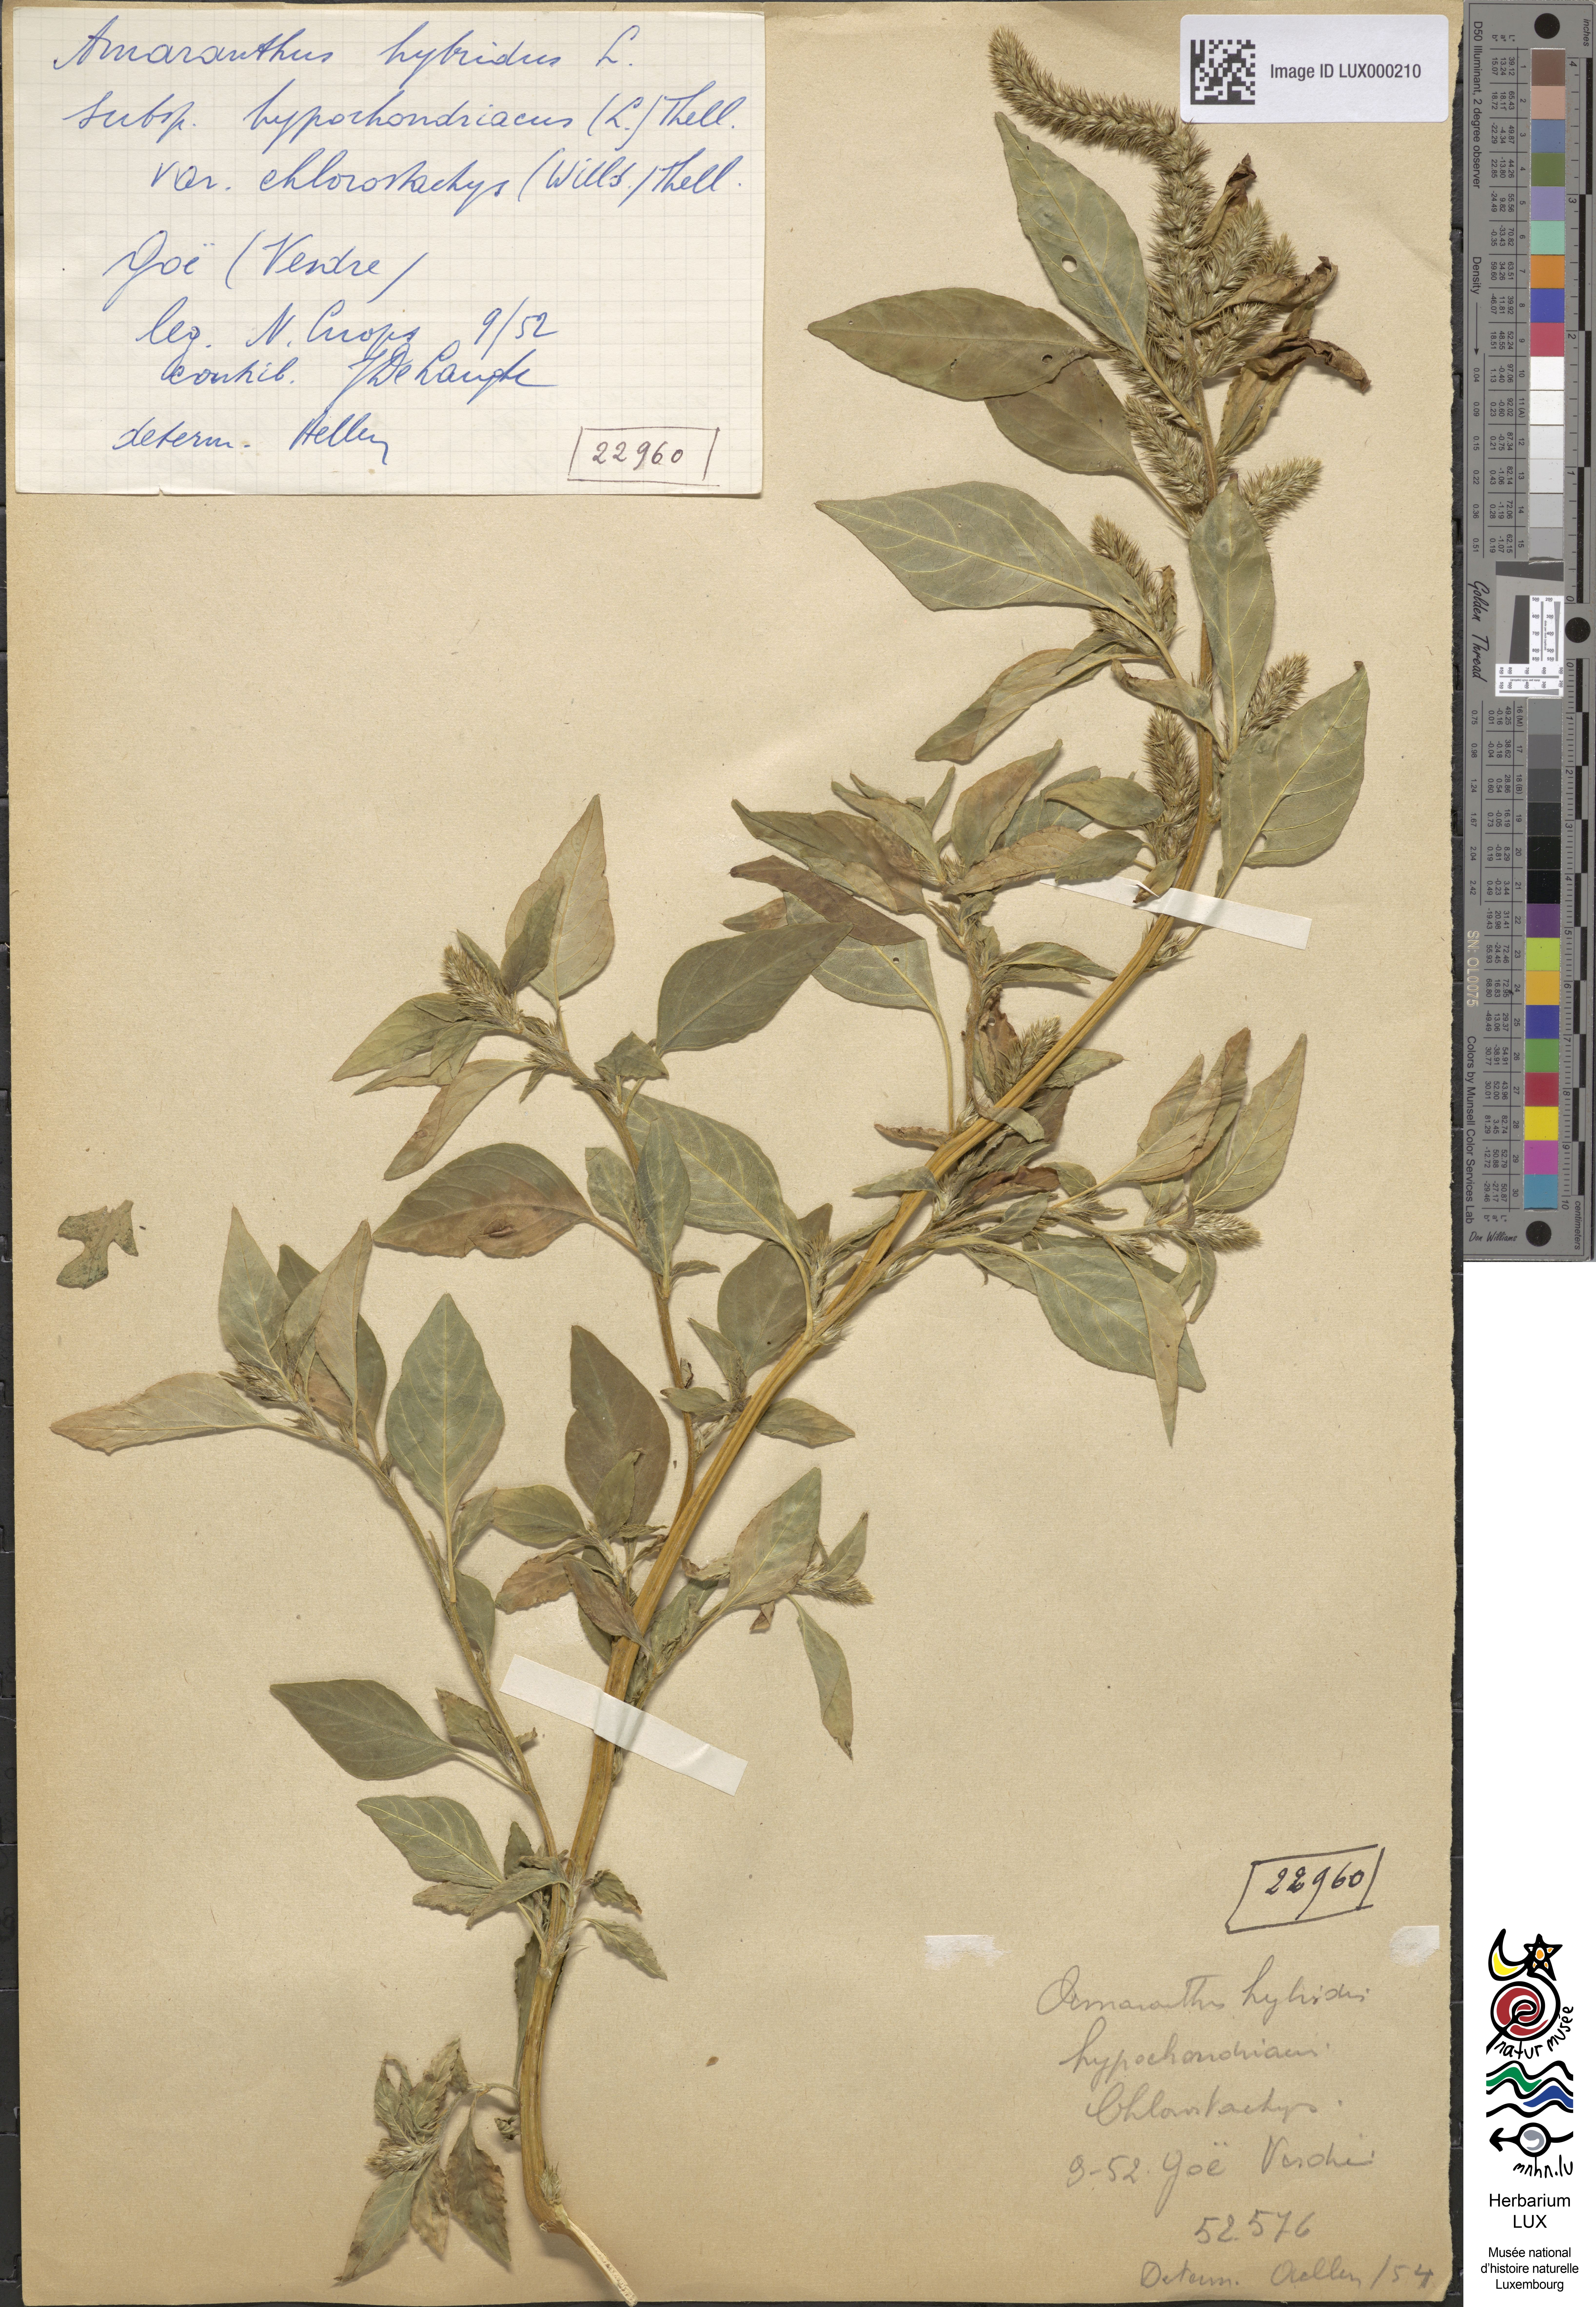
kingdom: Plantae
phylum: Tracheophyta
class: Magnoliopsida
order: Caryophyllales
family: Amaranthaceae
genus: Amaranthus
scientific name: Amaranthus cruentus
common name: Purple amaranth
